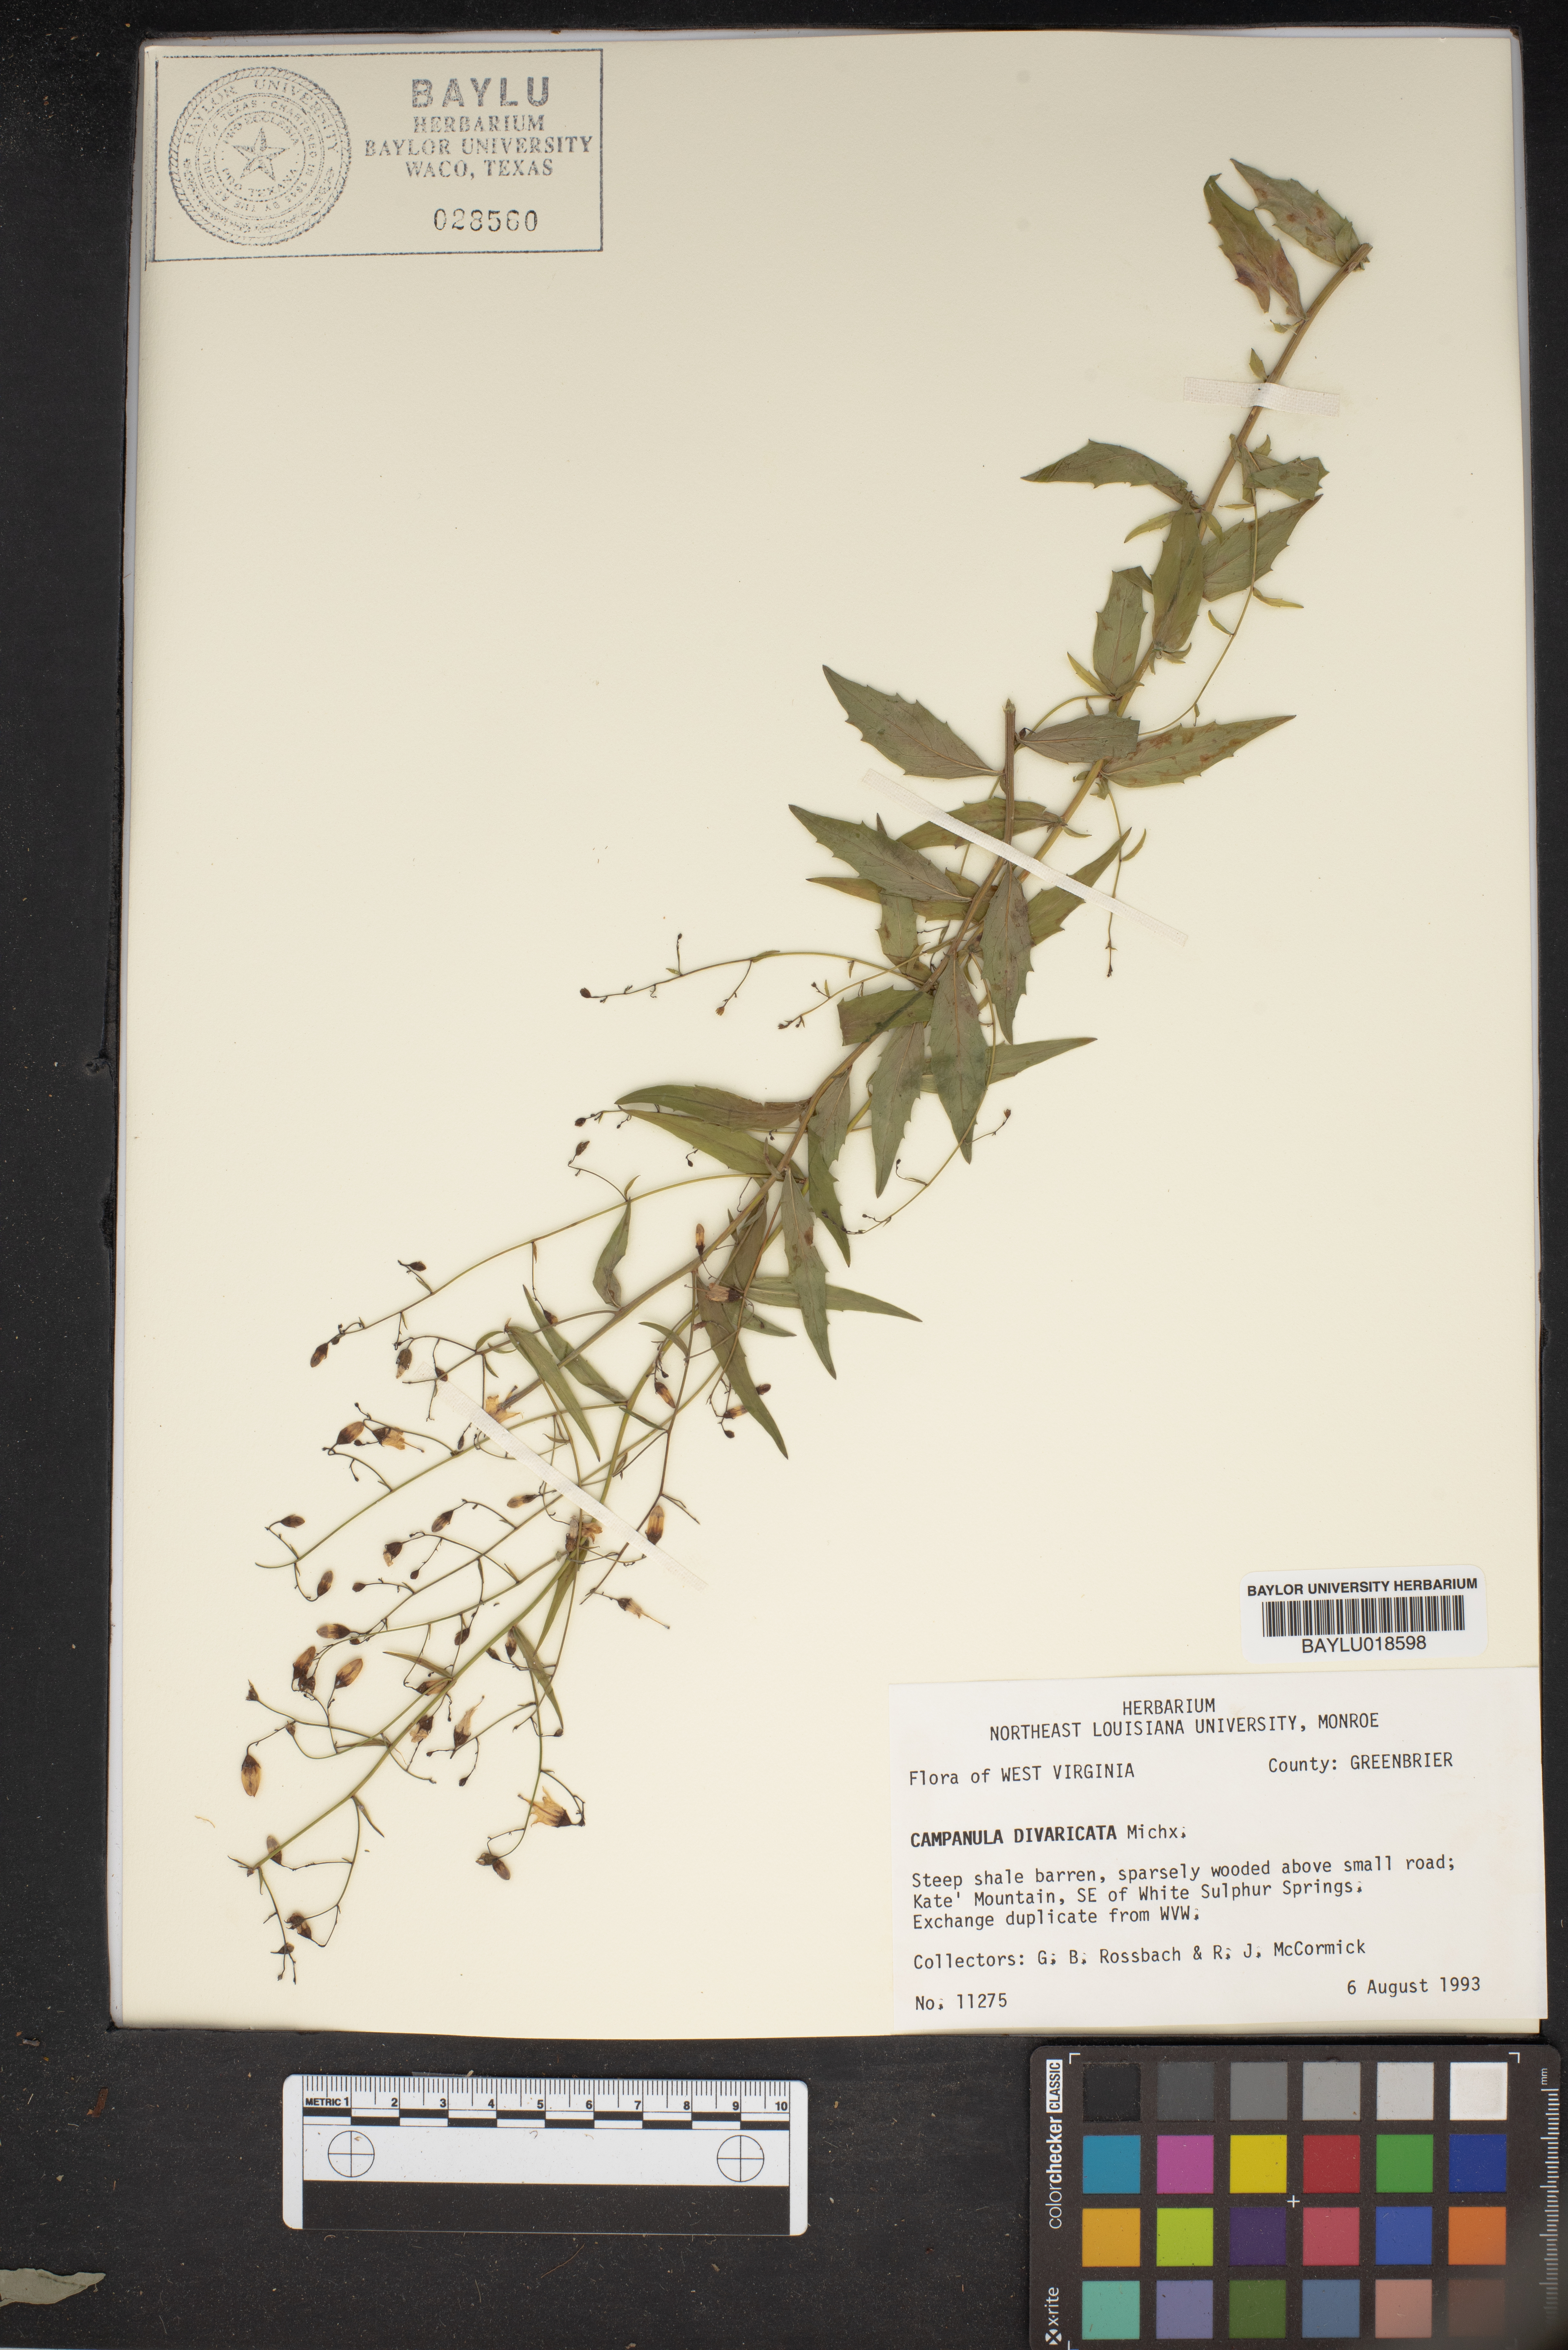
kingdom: Plantae
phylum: Tracheophyta
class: Magnoliopsida
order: Asterales
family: Campanulaceae
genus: Campanula
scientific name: Campanula divaricata
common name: Appalachian bellflower
